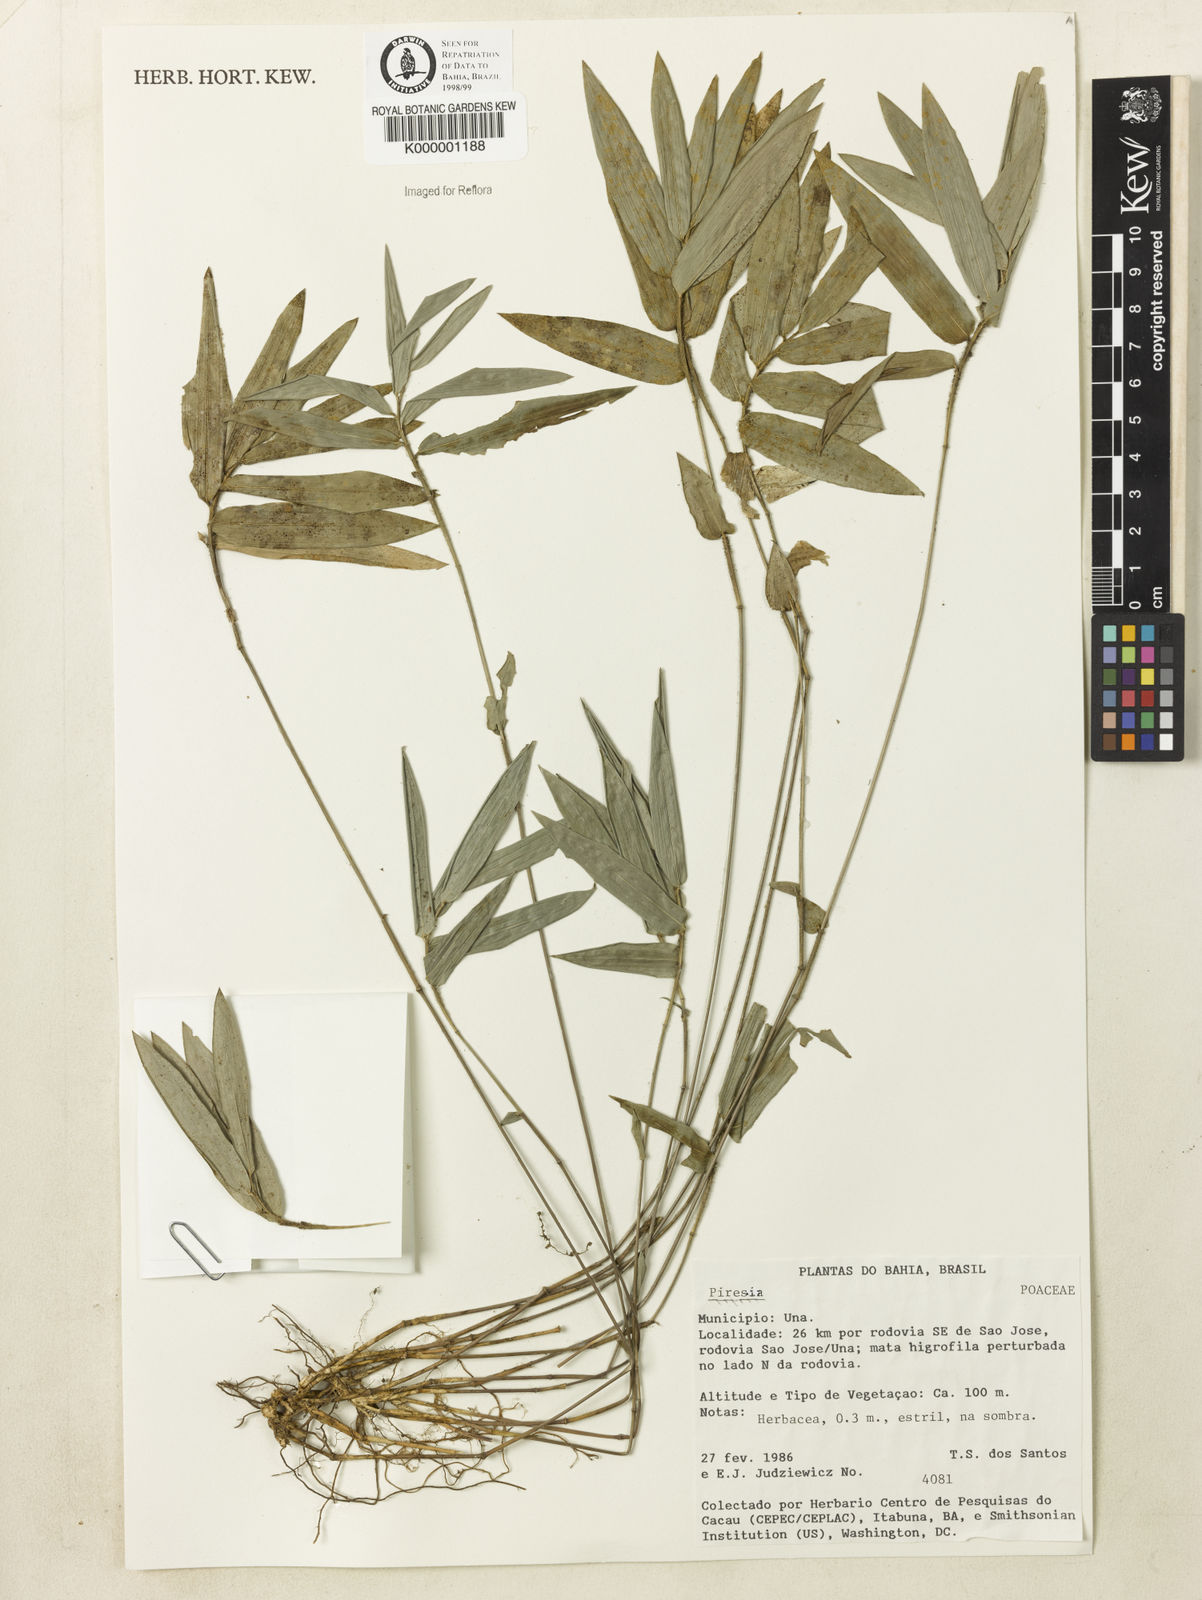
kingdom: Plantae
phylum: Tracheophyta
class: Liliopsida
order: Poales
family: Poaceae
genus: Piresia
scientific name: Piresia
